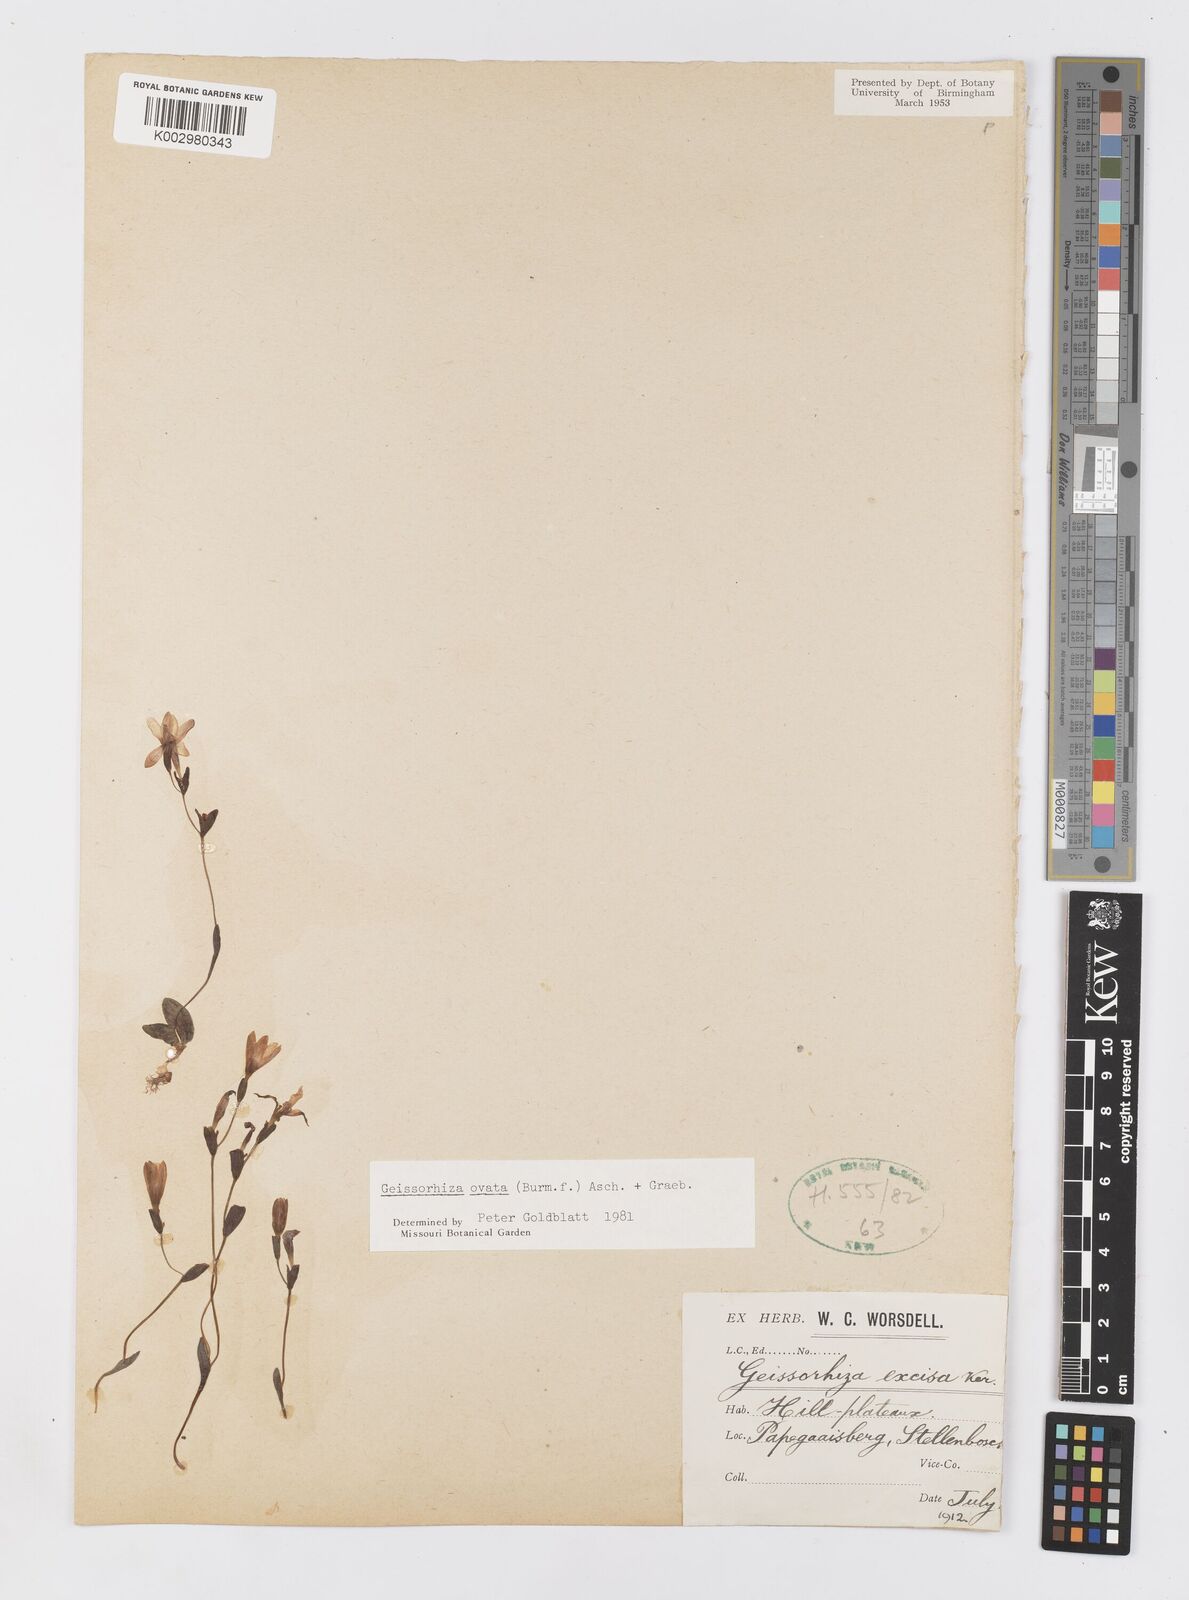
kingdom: Plantae
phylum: Tracheophyta
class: Liliopsida
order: Asparagales
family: Iridaceae
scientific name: Iridaceae
